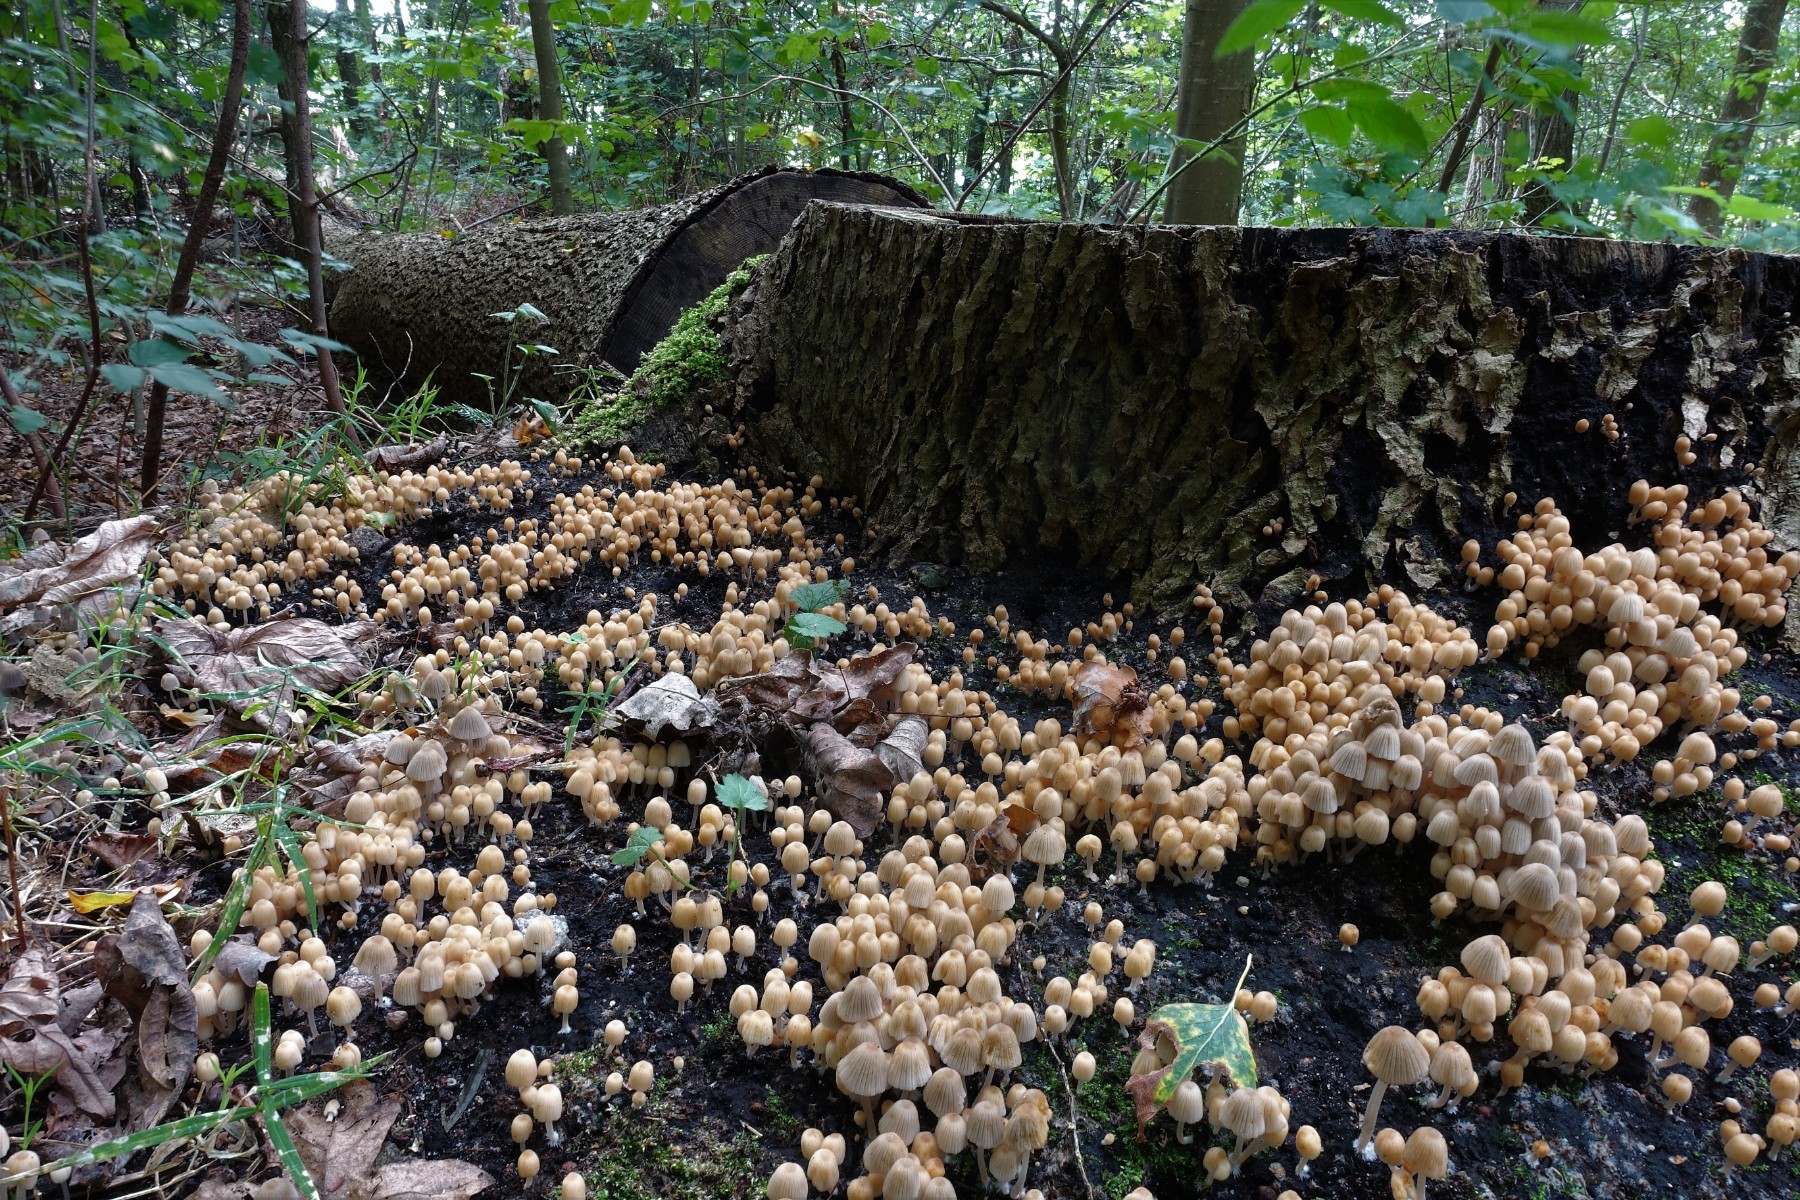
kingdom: Fungi
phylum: Basidiomycota
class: Agaricomycetes
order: Agaricales
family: Psathyrellaceae
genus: Coprinellus
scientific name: Coprinellus disseminatus
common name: bredsået blækhat
